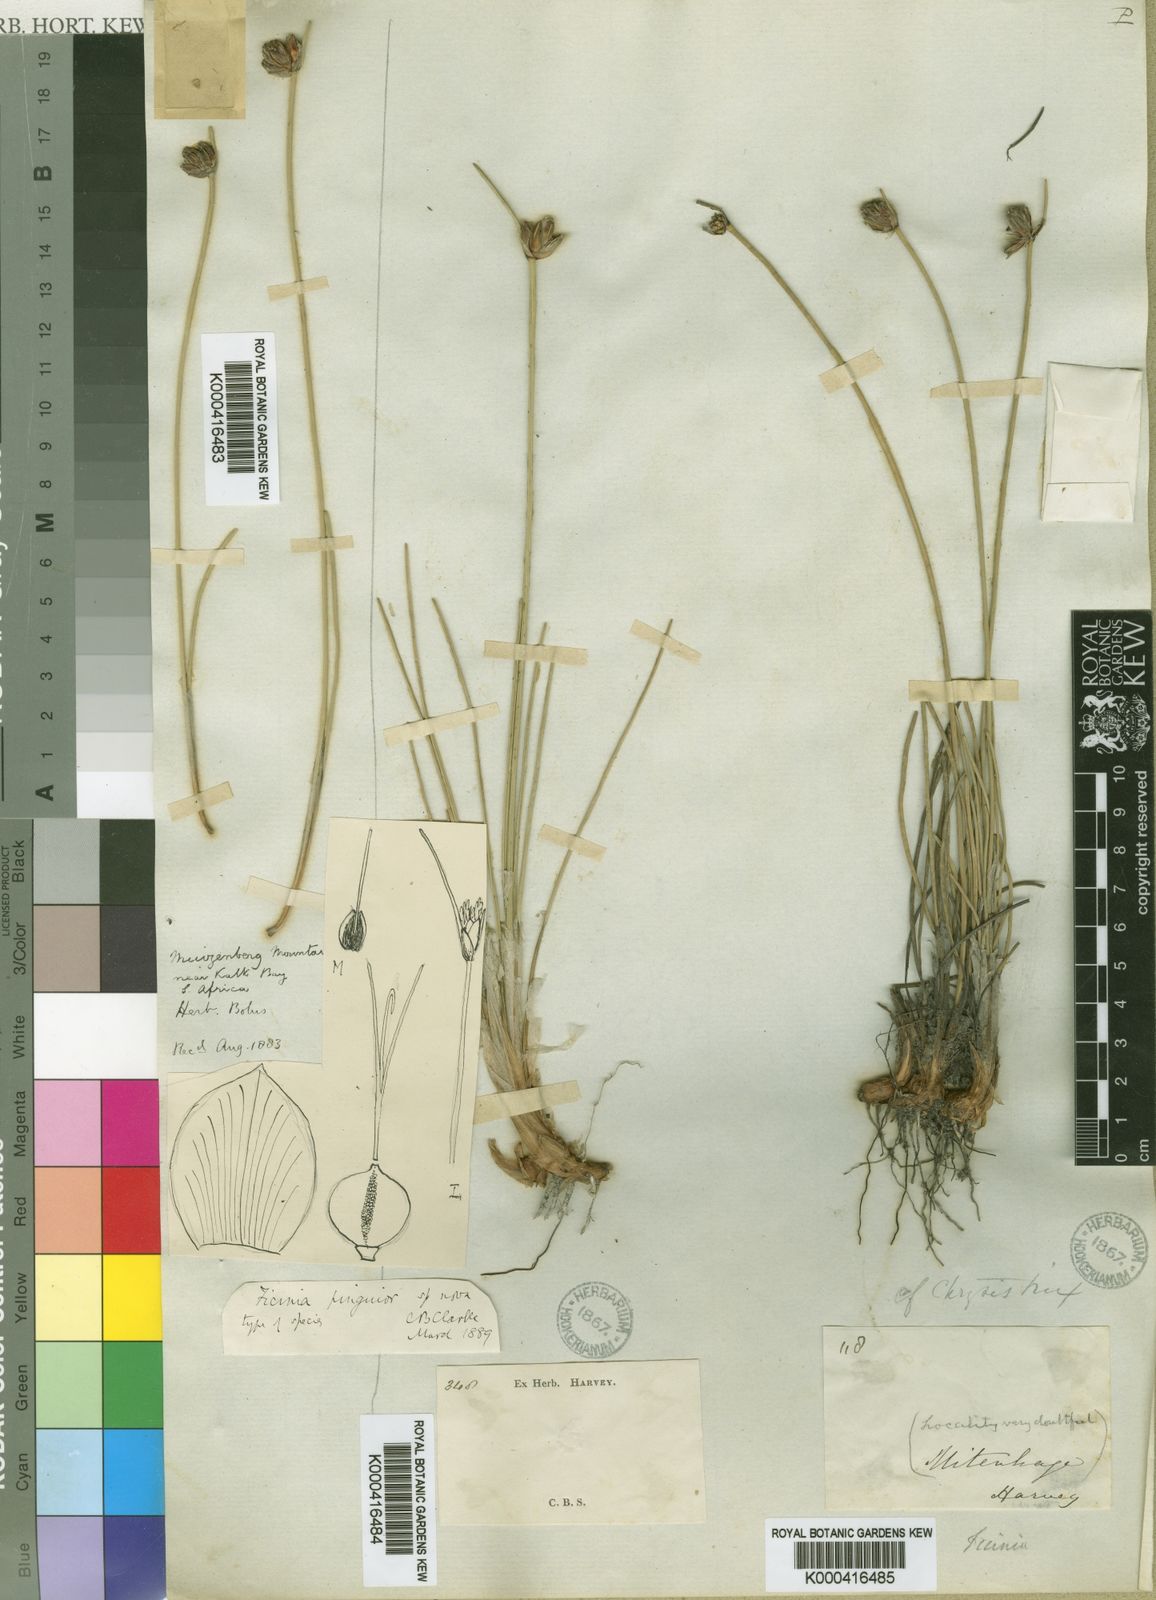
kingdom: Plantae
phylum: Tracheophyta
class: Liliopsida
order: Poales
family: Cyperaceae
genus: Ficinia
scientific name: Ficinia pinguior
